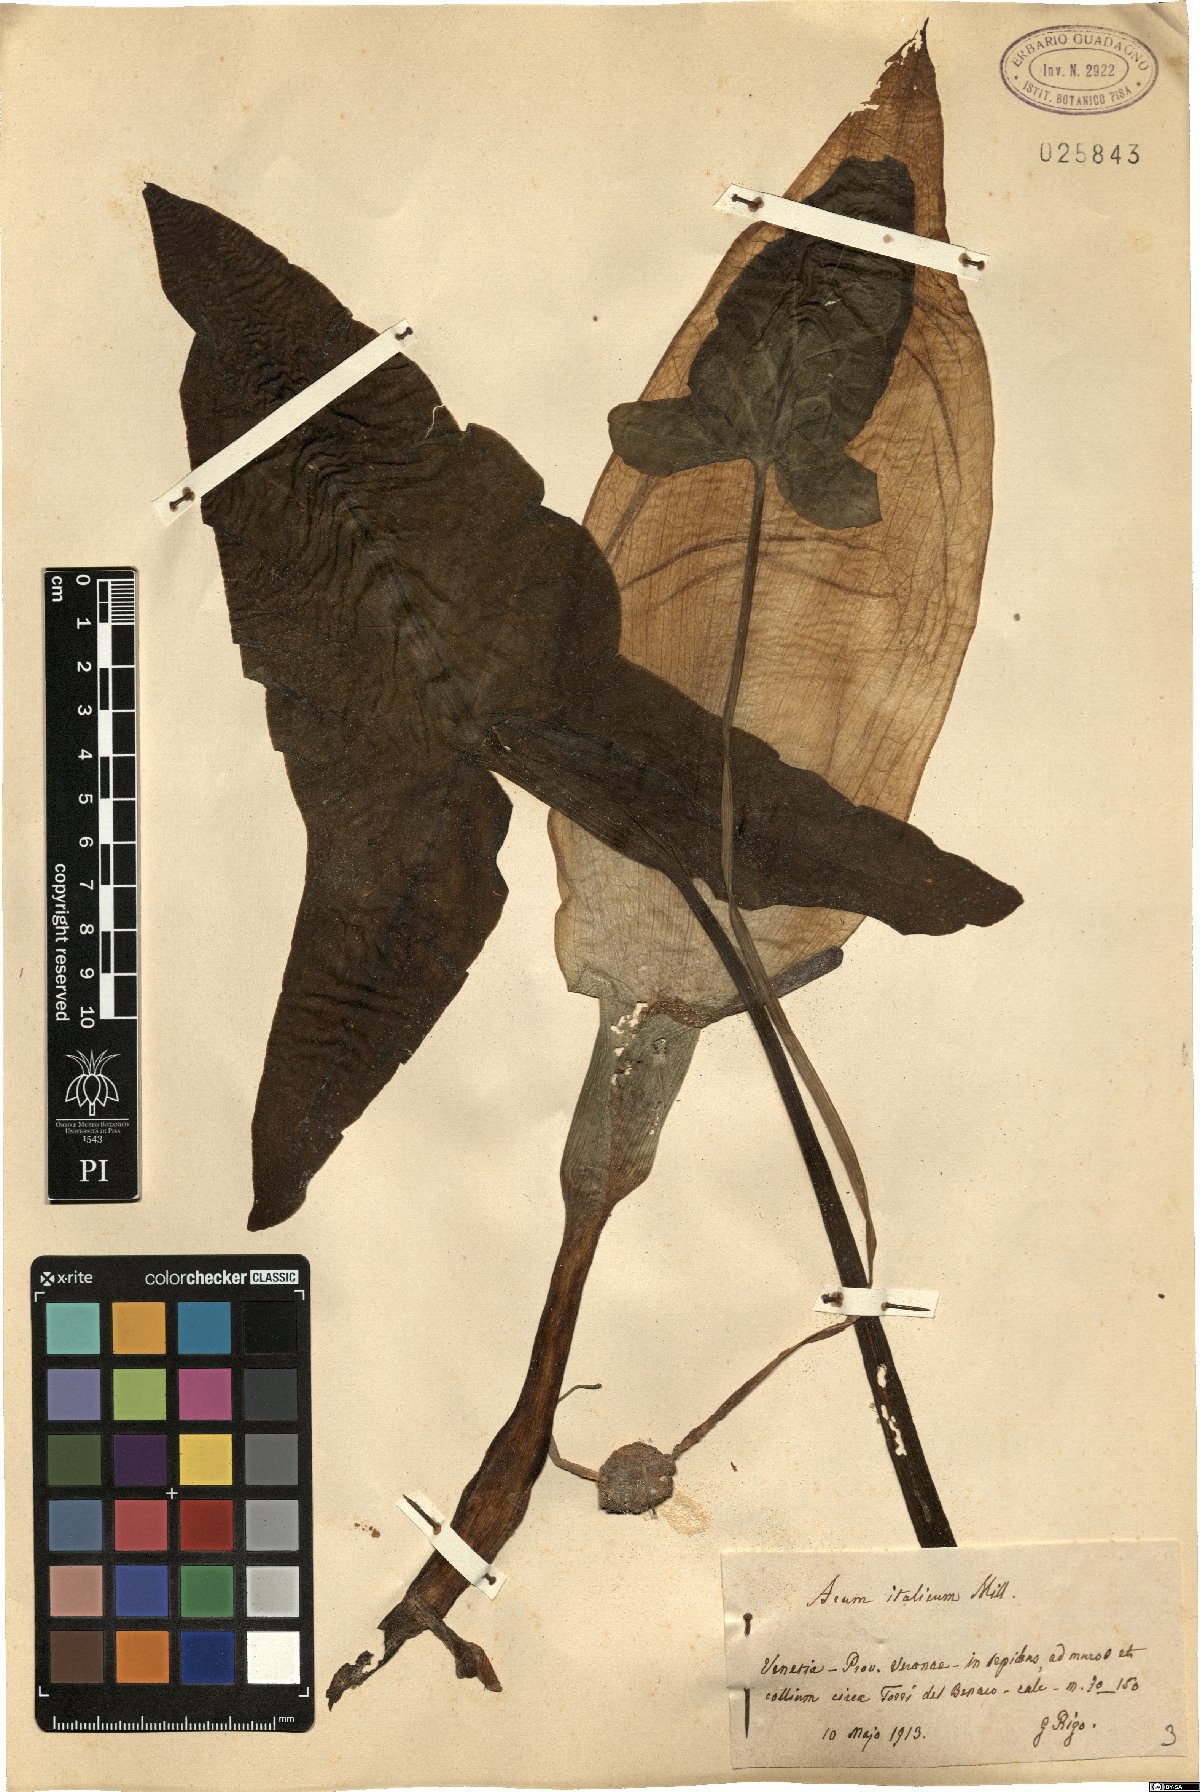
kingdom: Plantae
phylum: Tracheophyta
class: Liliopsida
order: Alismatales
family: Araceae
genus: Arum
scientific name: Arum italicum
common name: Italian lords-and-ladies
